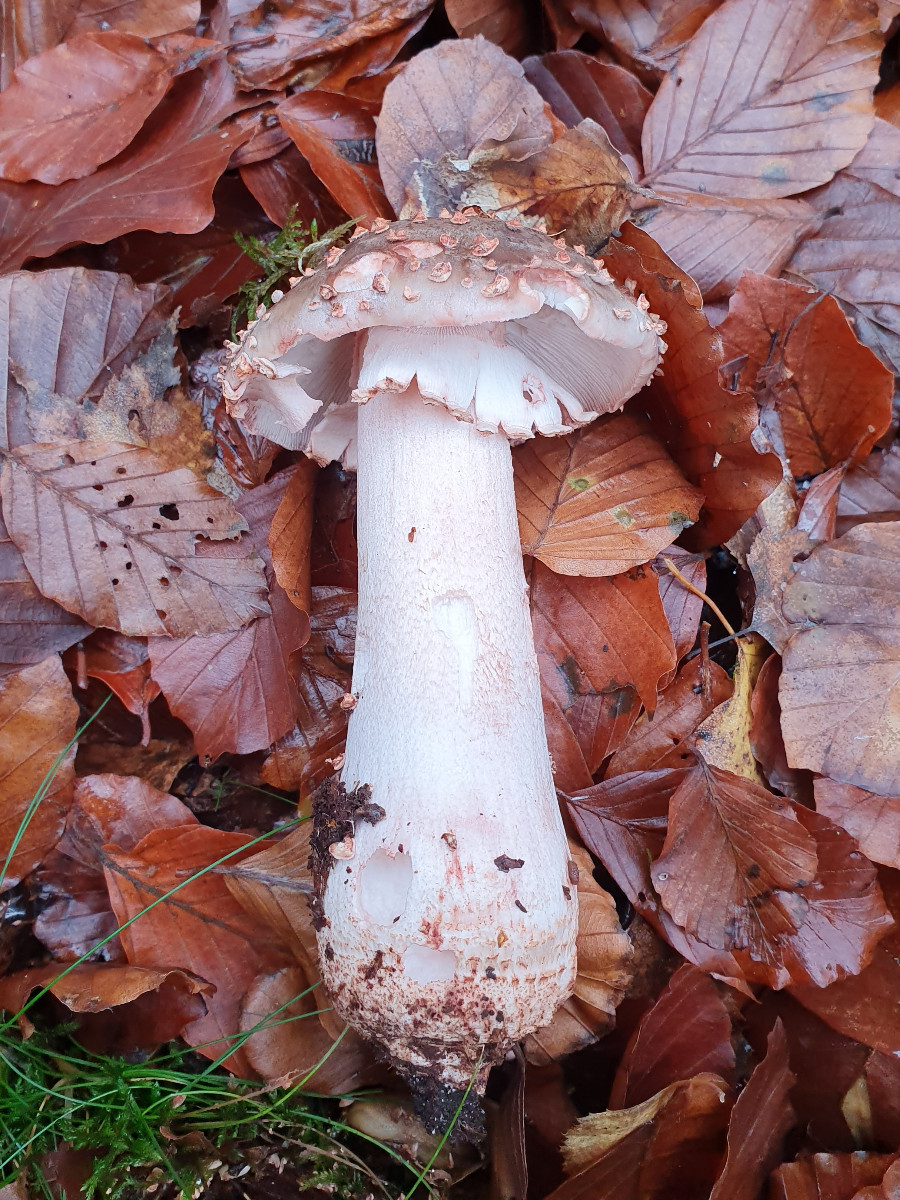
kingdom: Fungi
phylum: Basidiomycota
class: Agaricomycetes
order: Agaricales
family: Amanitaceae
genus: Amanita
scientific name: Amanita rubescens
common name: rødmende fluesvamp
